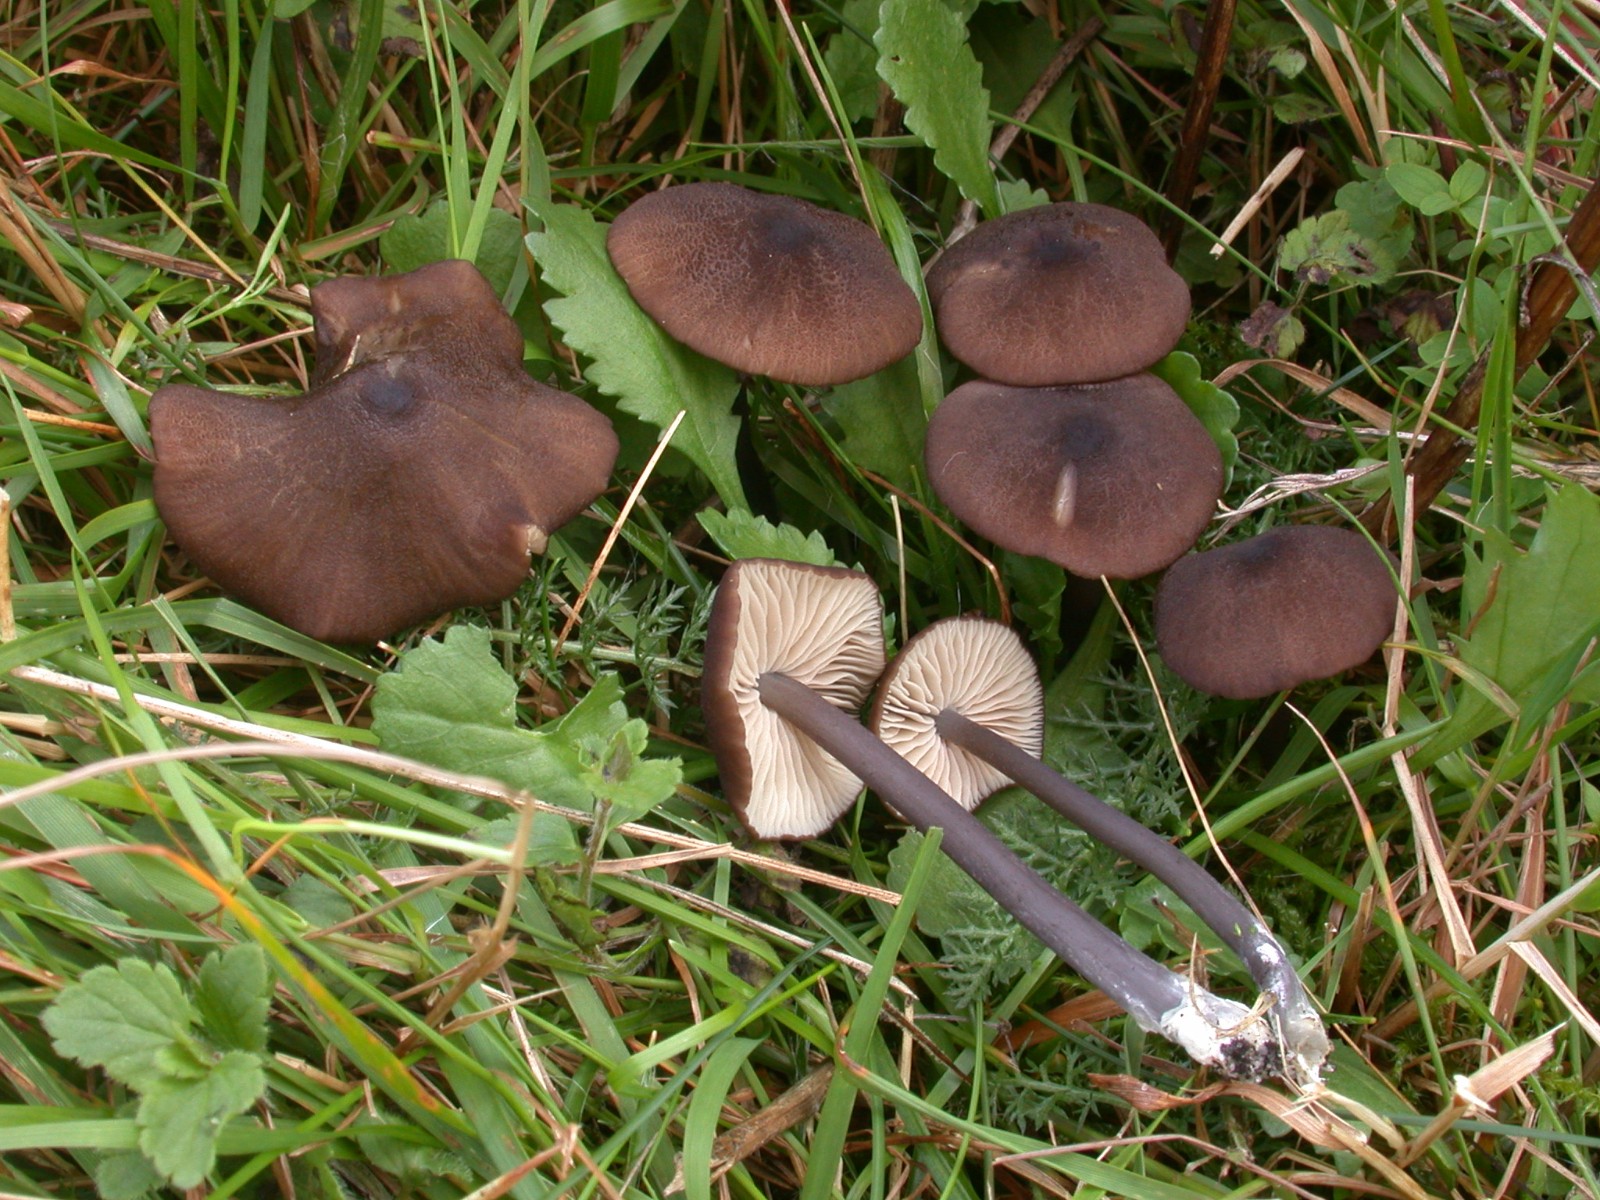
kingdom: Fungi
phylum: Basidiomycota
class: Agaricomycetes
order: Agaricales
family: Entolomataceae
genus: Entoloma
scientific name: Entoloma poliopus
